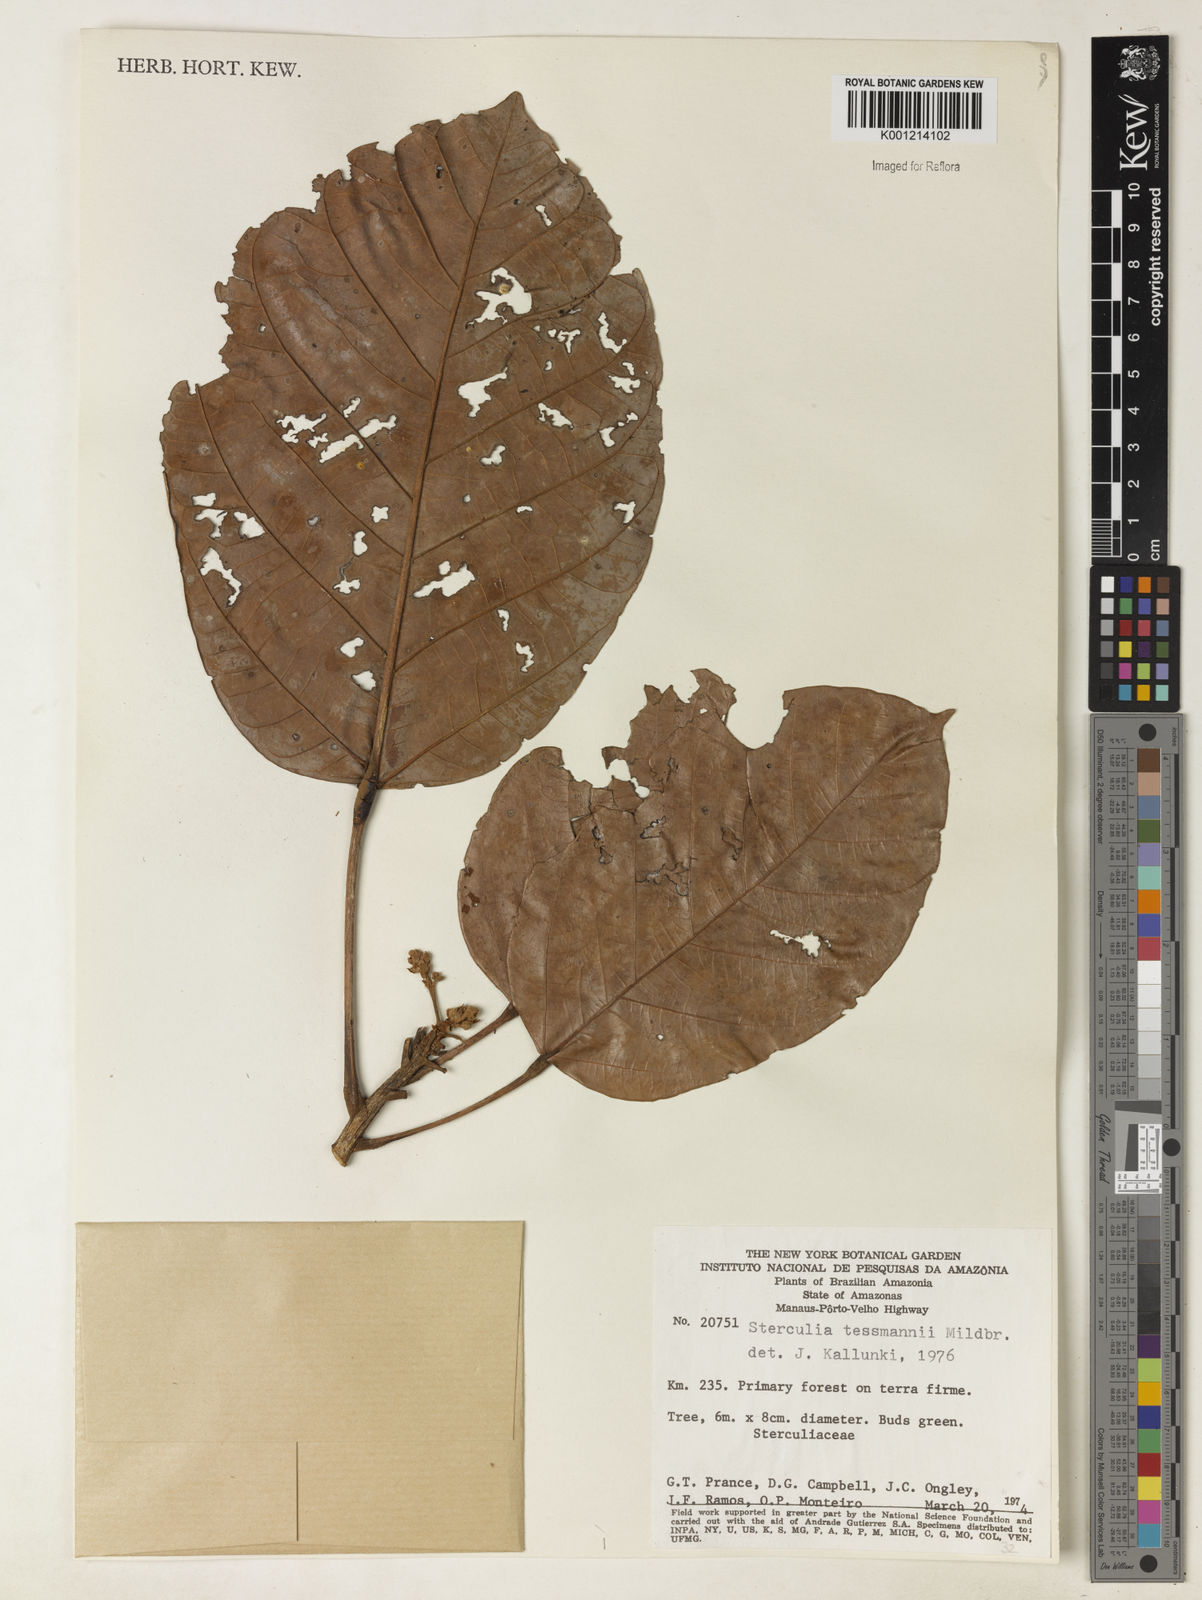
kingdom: Plantae
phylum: Tracheophyta
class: Magnoliopsida
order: Malvales
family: Malvaceae
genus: Sterculia
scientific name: Sterculia tessmannii
